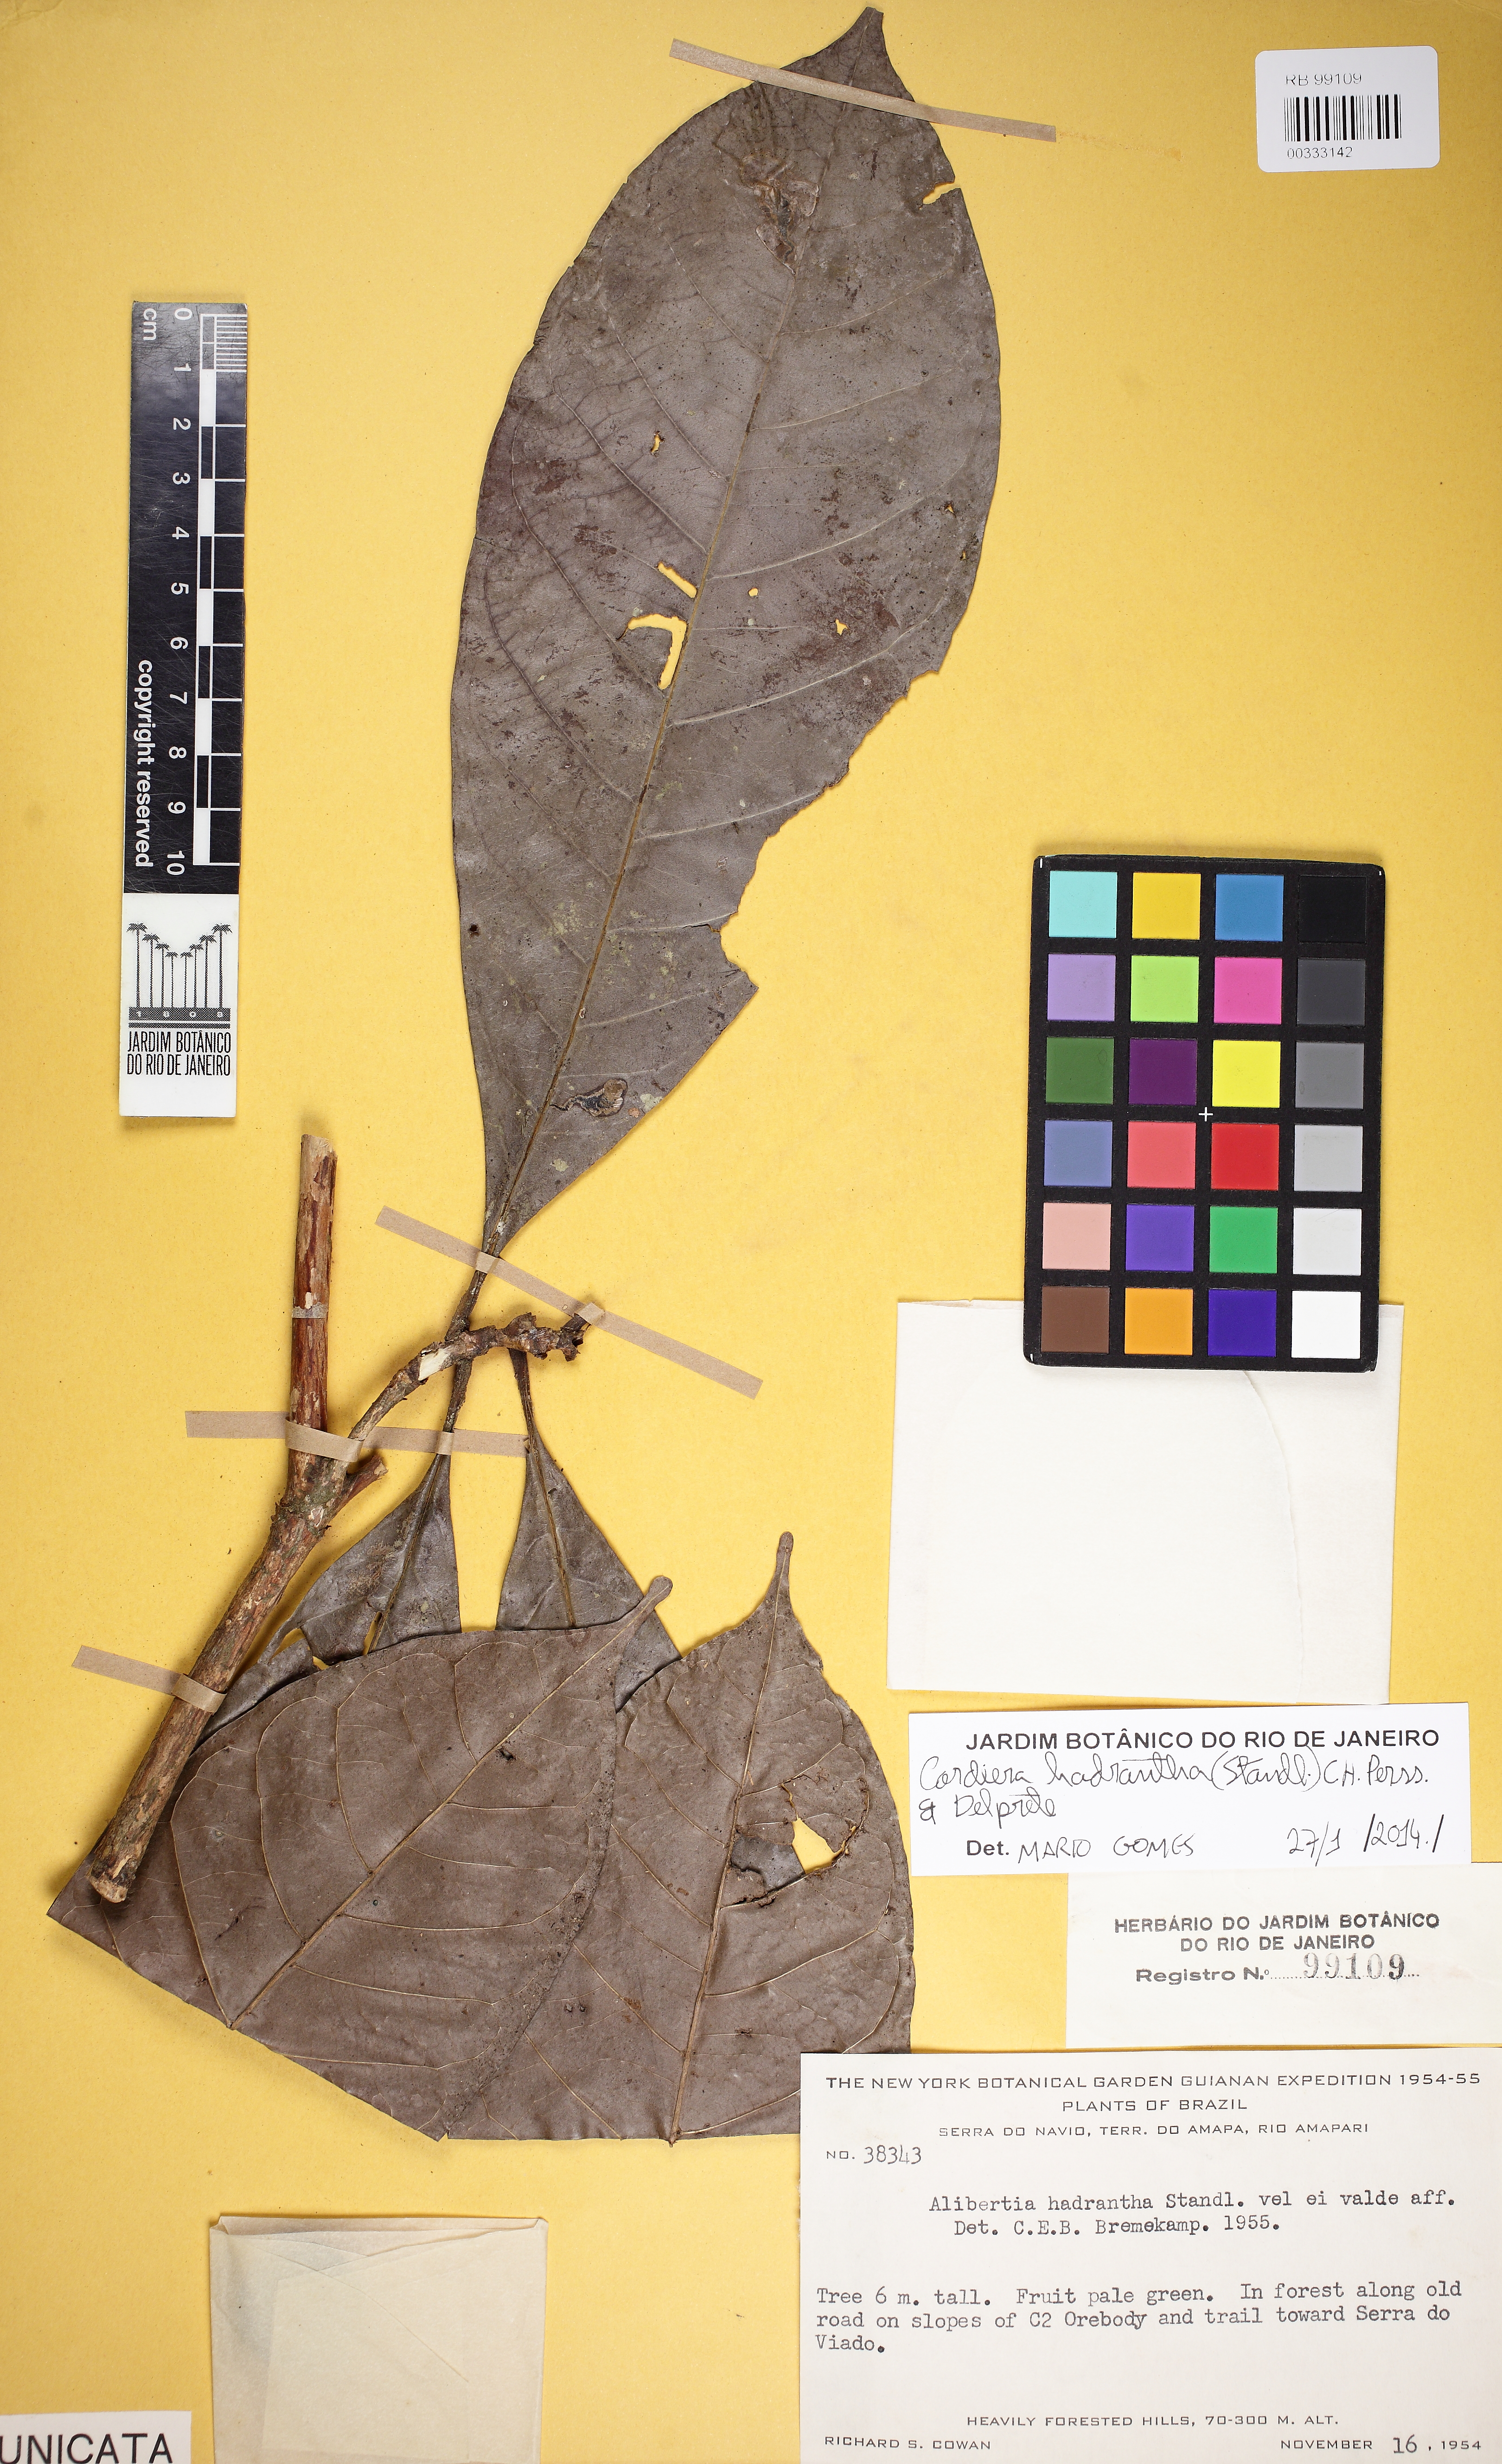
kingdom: Plantae
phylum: Tracheophyta
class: Magnoliopsida
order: Gentianales
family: Rubiaceae
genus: Cordiera
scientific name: Cordiera hadrantha
